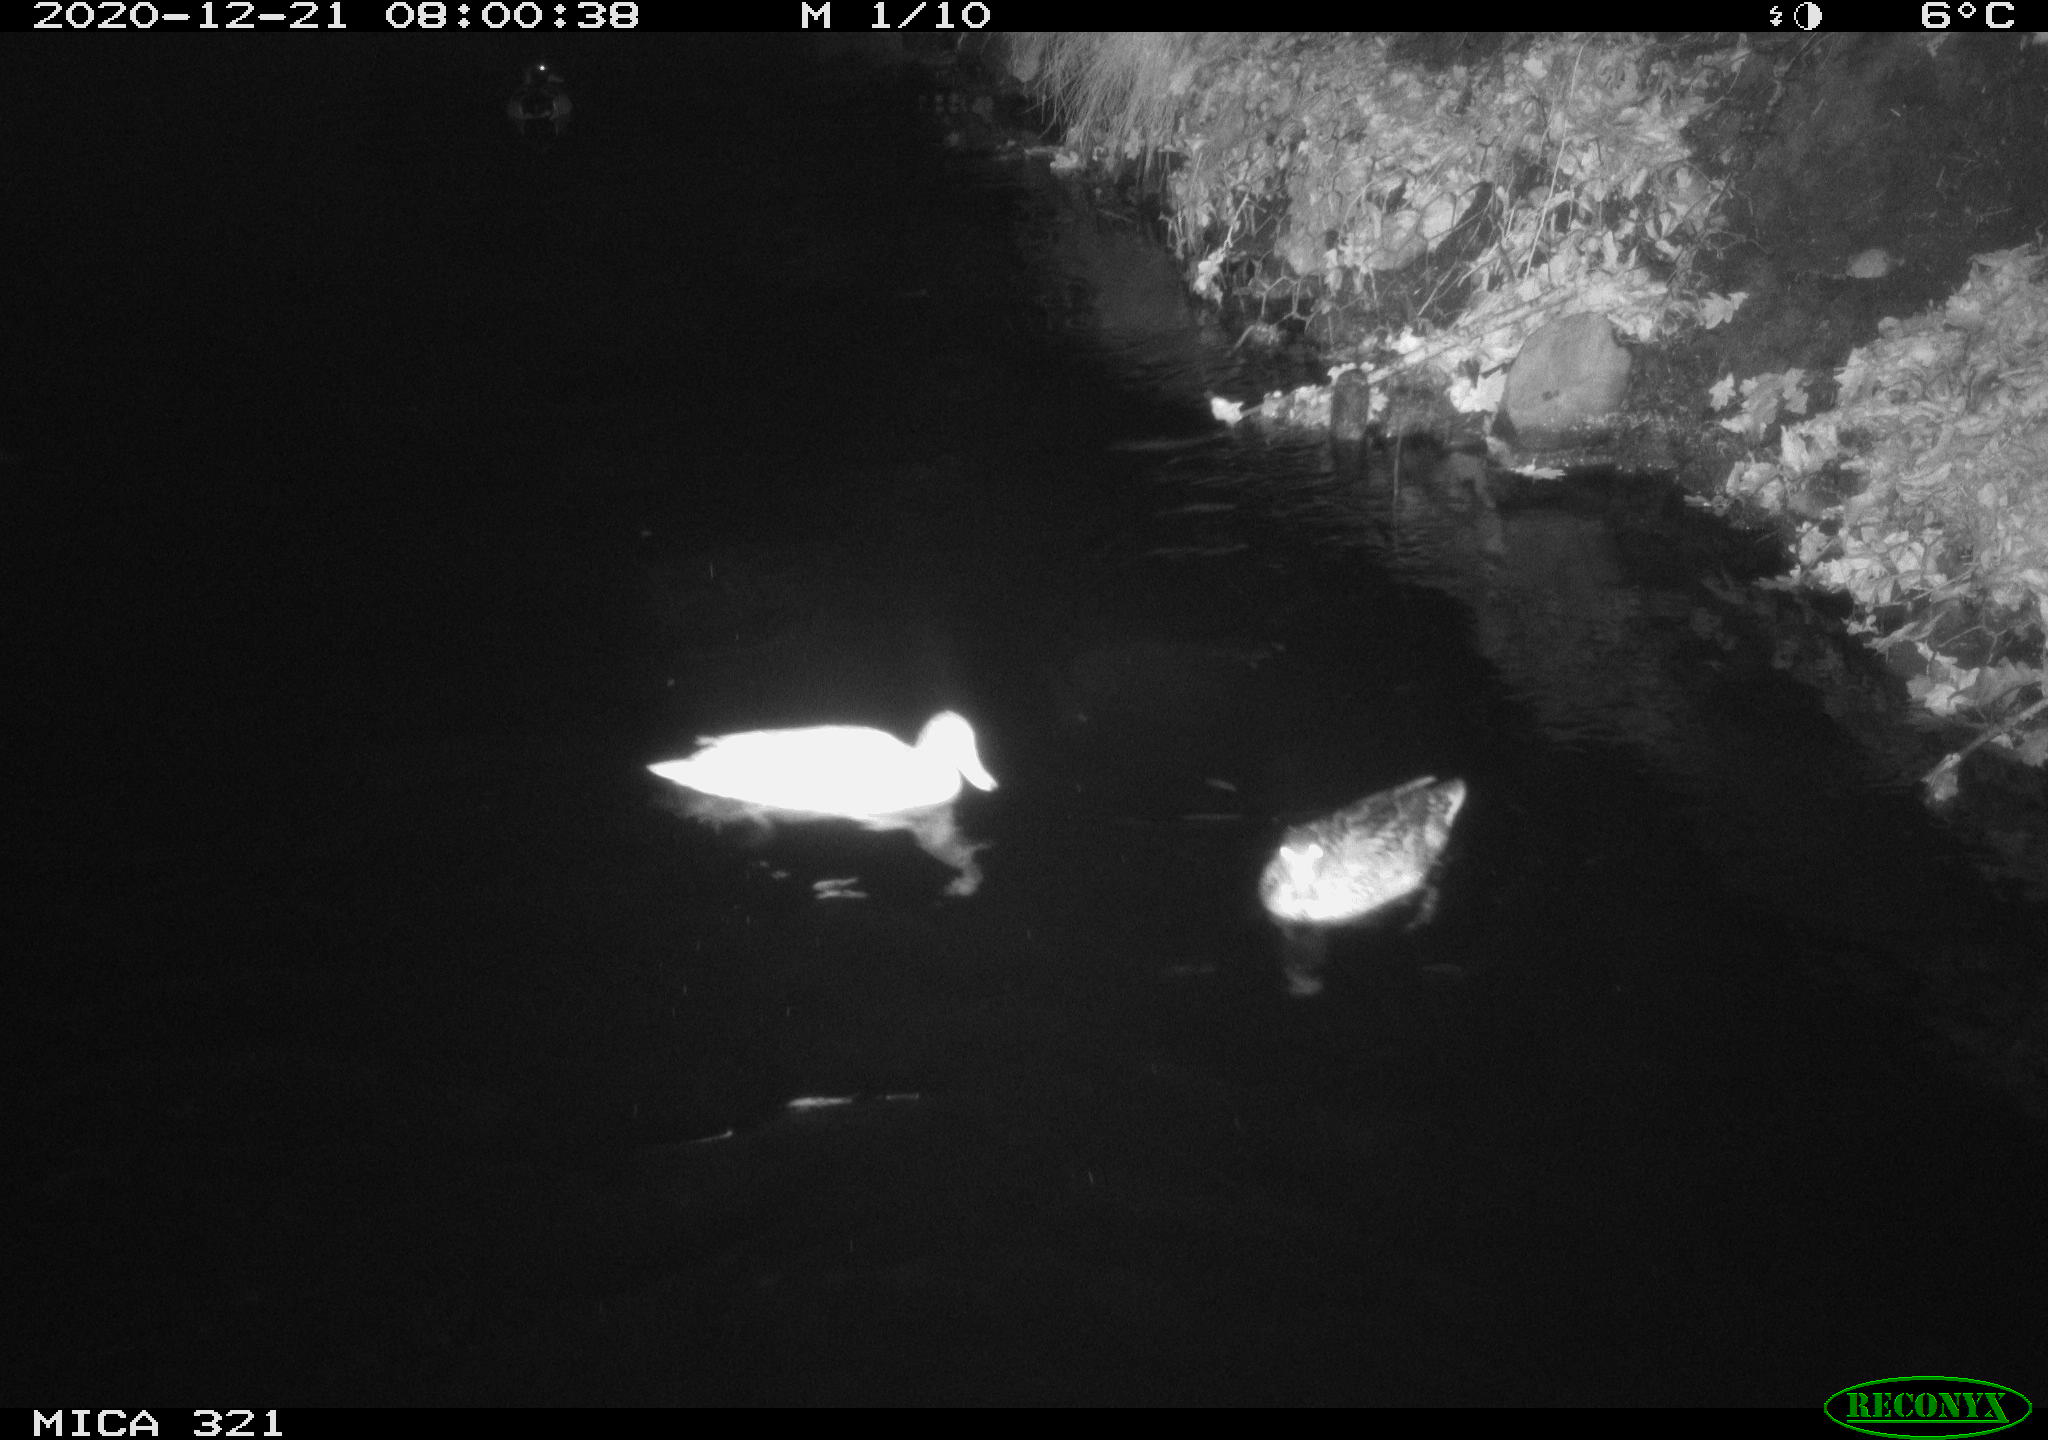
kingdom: Animalia
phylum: Chordata
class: Aves
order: Anseriformes
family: Anatidae
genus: Anas
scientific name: Anas platyrhynchos
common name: Mallard
